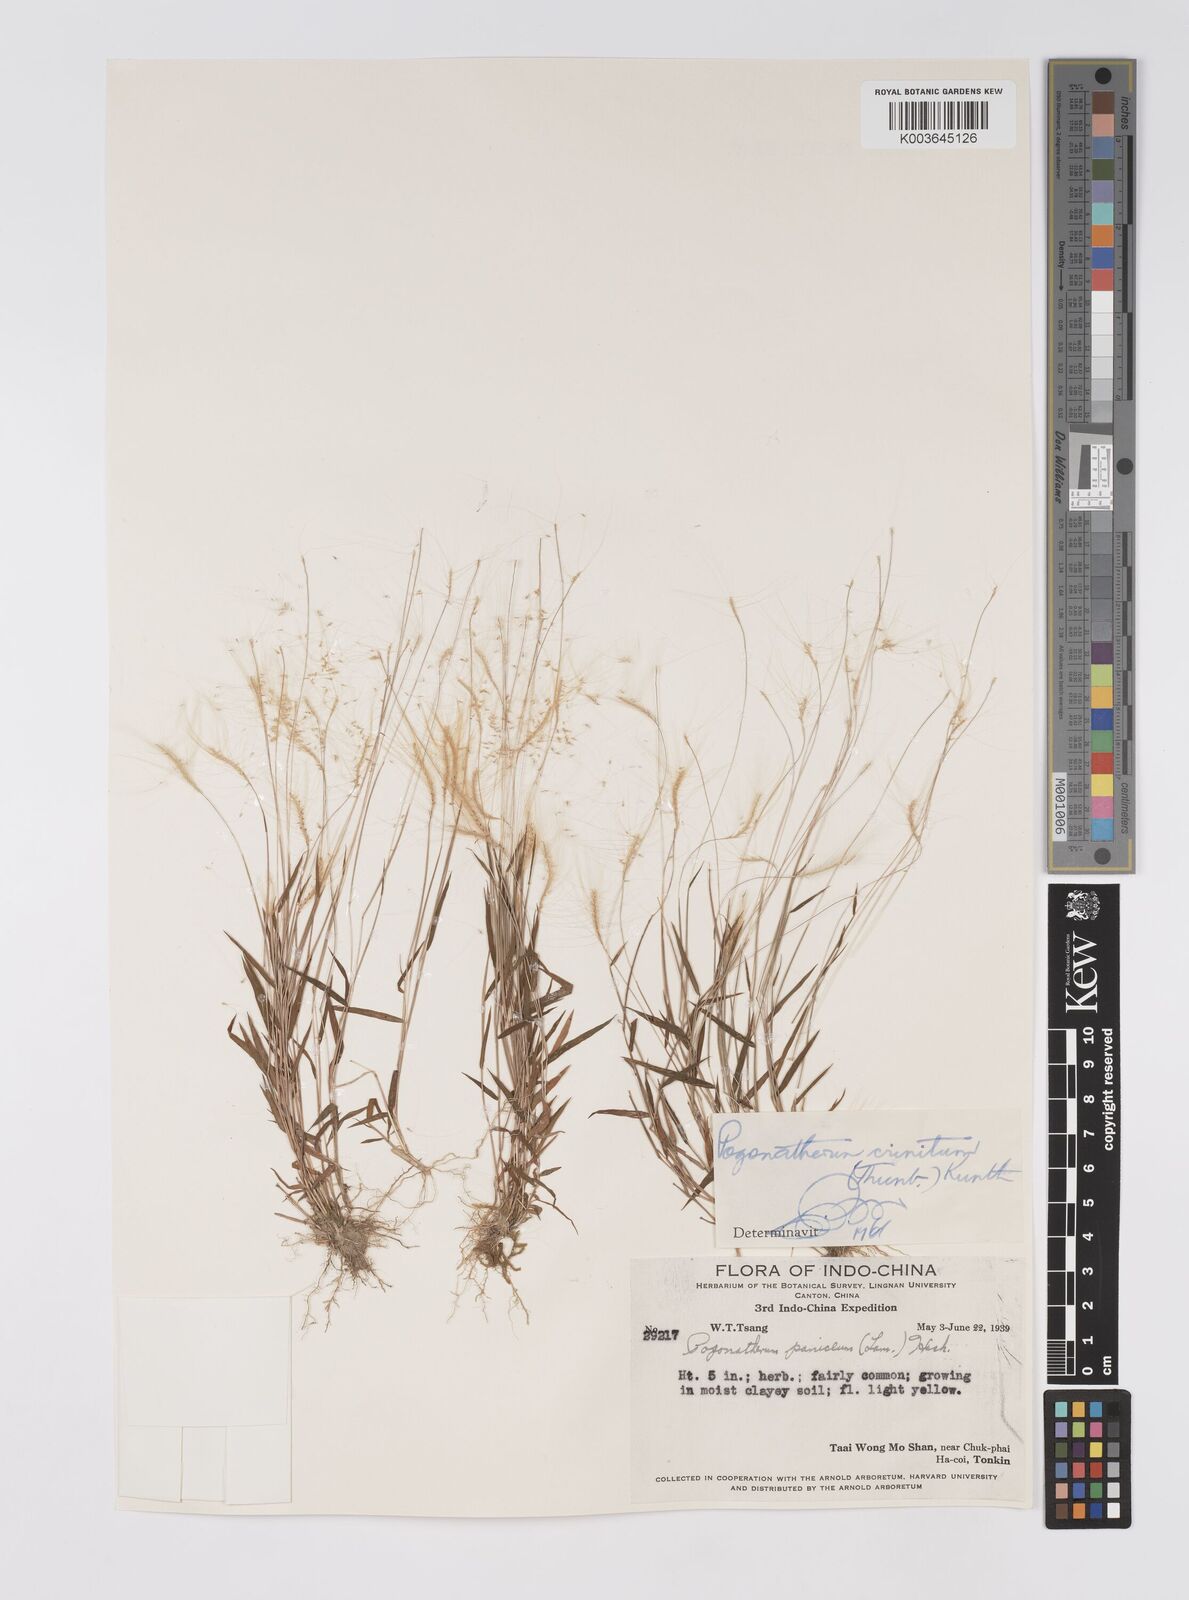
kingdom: Plantae
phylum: Tracheophyta
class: Liliopsida
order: Poales
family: Poaceae
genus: Pogonatherum
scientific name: Pogonatherum crinitum
